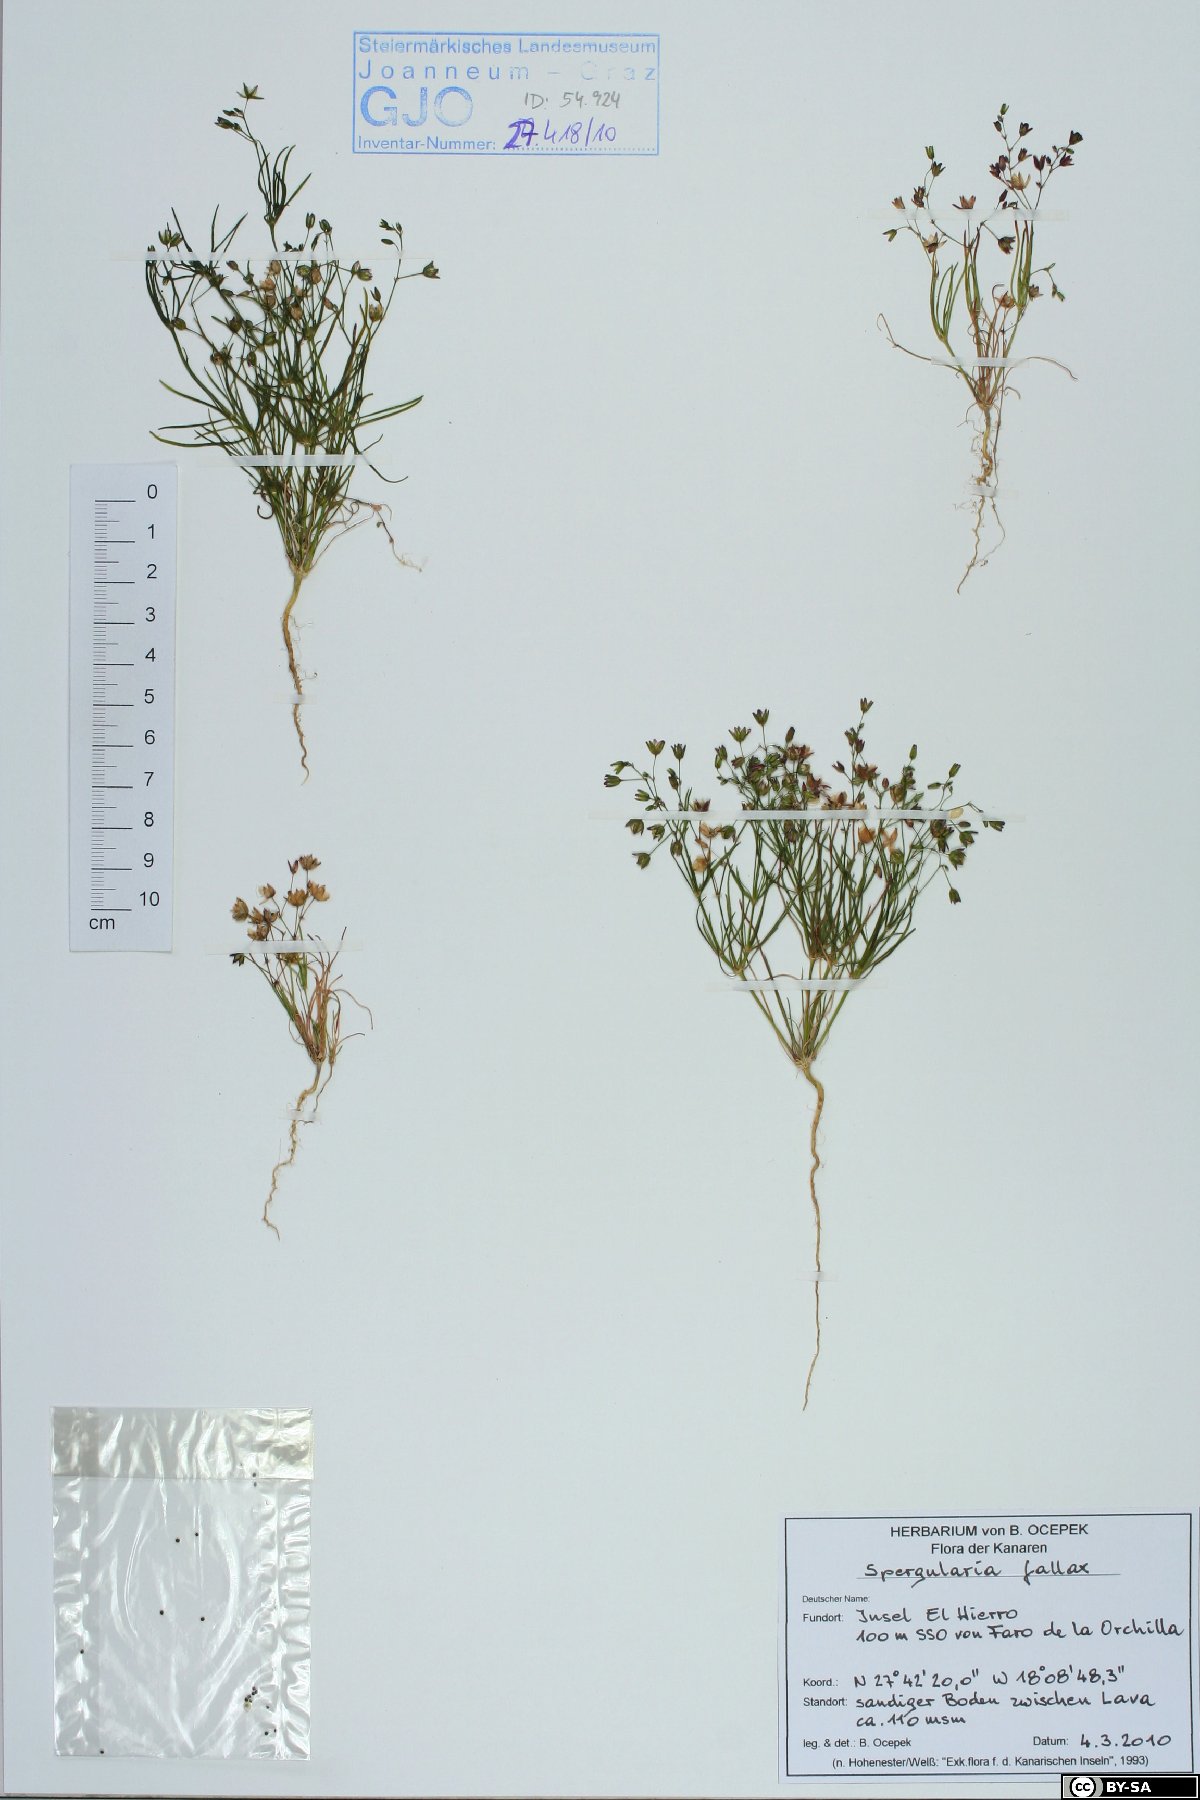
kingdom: Plantae
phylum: Tracheophyta
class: Magnoliopsida
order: Caryophyllales
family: Caryophyllaceae
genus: Spergularia
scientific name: Spergularia flaccida
